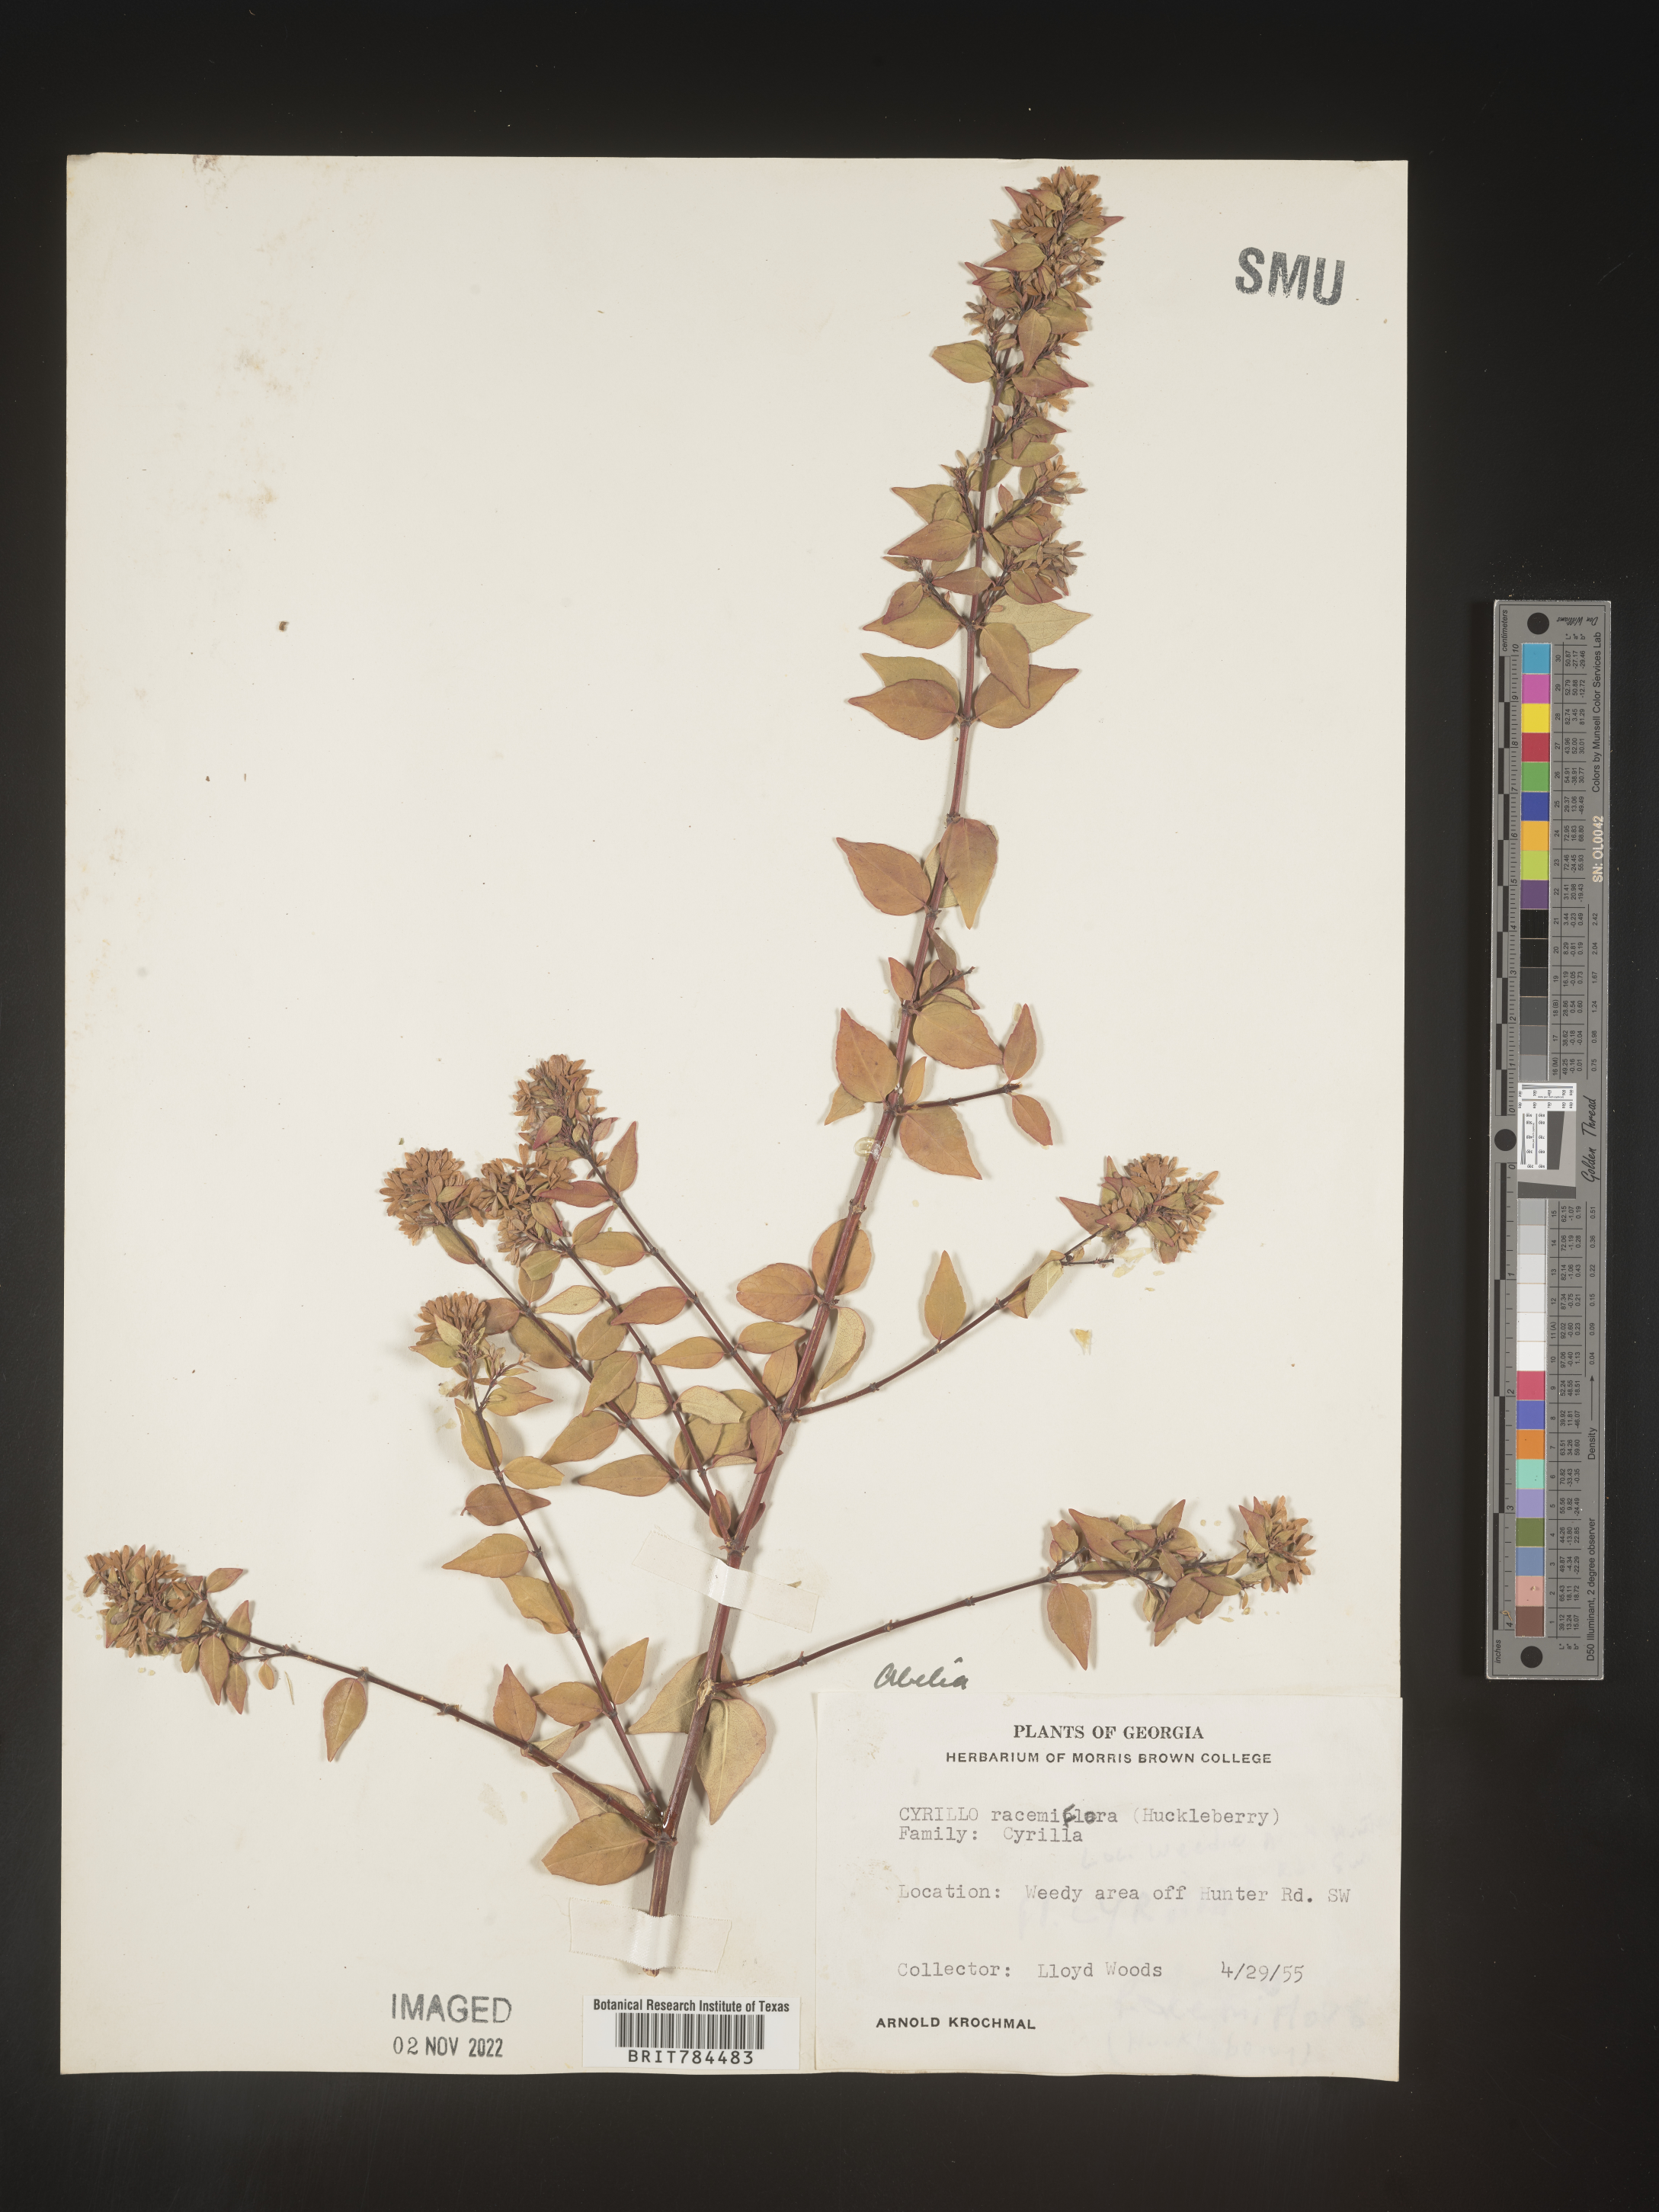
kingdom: Plantae
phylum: Tracheophyta
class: Magnoliopsida
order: Dipsacales
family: Caprifoliaceae
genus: Abelia
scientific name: Abelia
